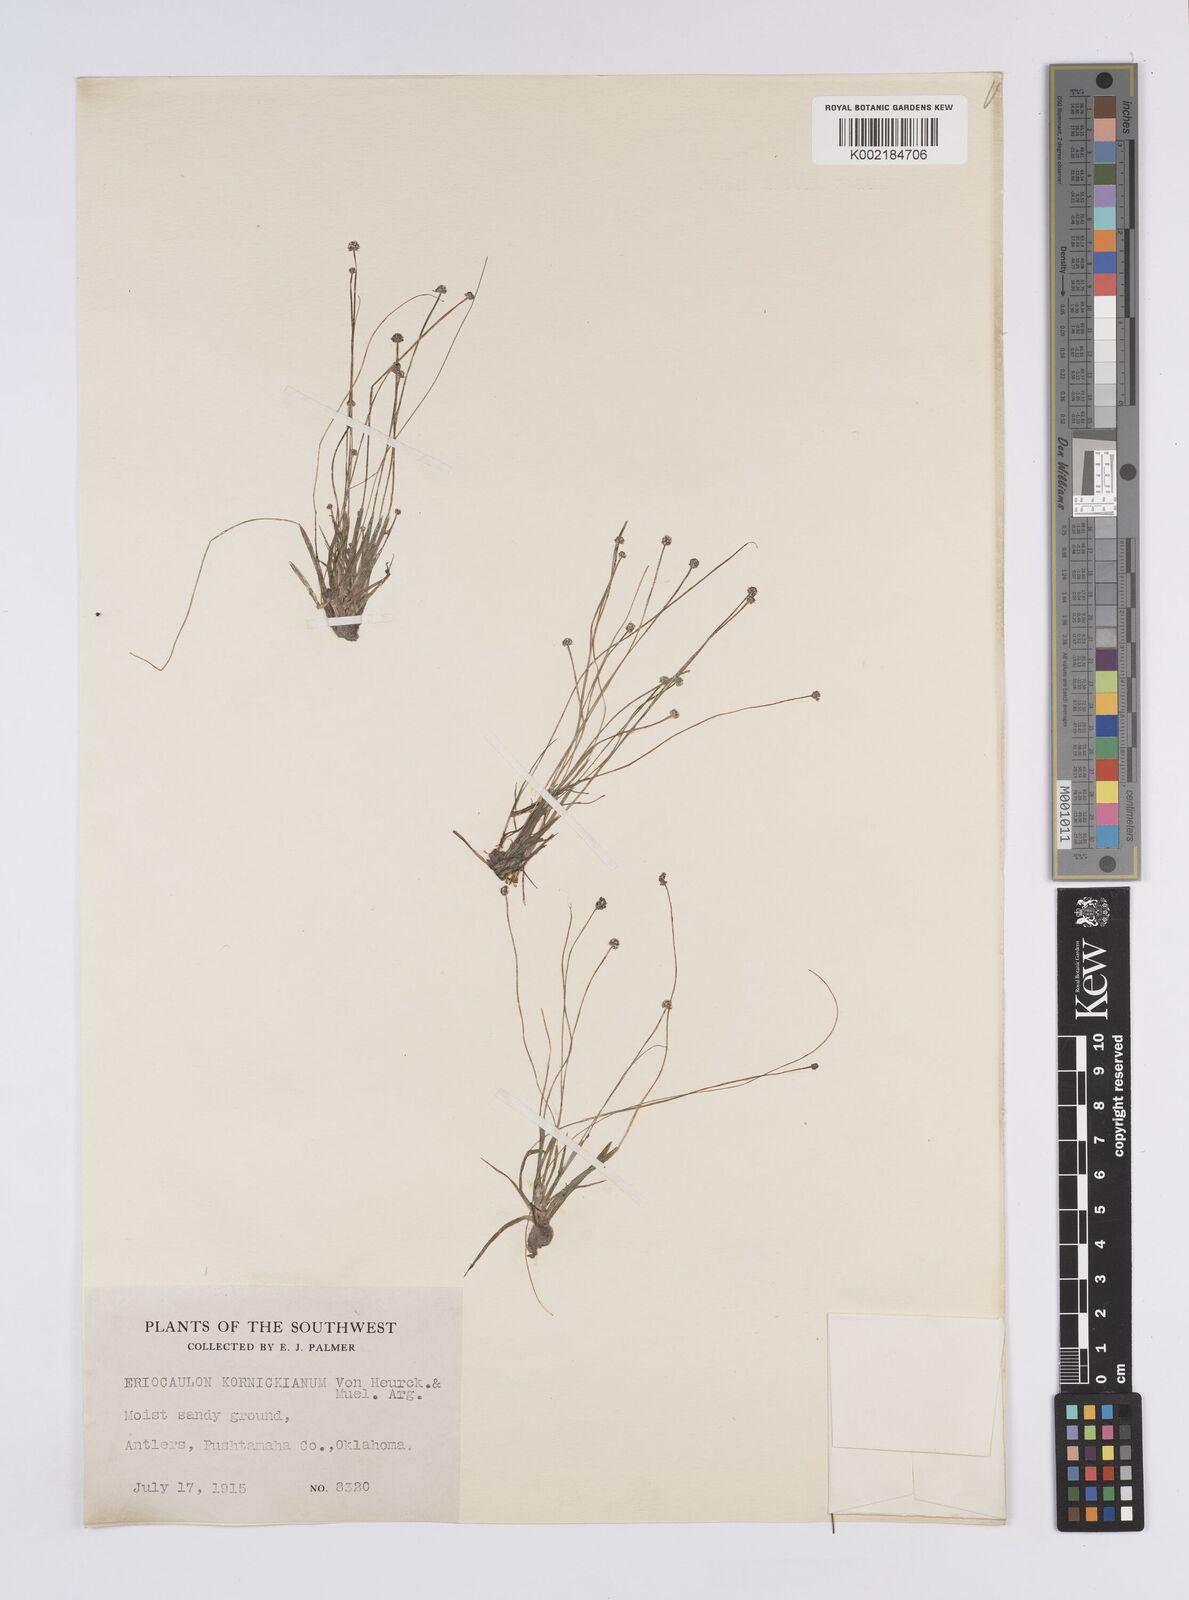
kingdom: Plantae
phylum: Tracheophyta
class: Liliopsida
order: Poales
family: Eriocaulaceae
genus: Eriocaulon
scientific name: Eriocaulon koernickianum
